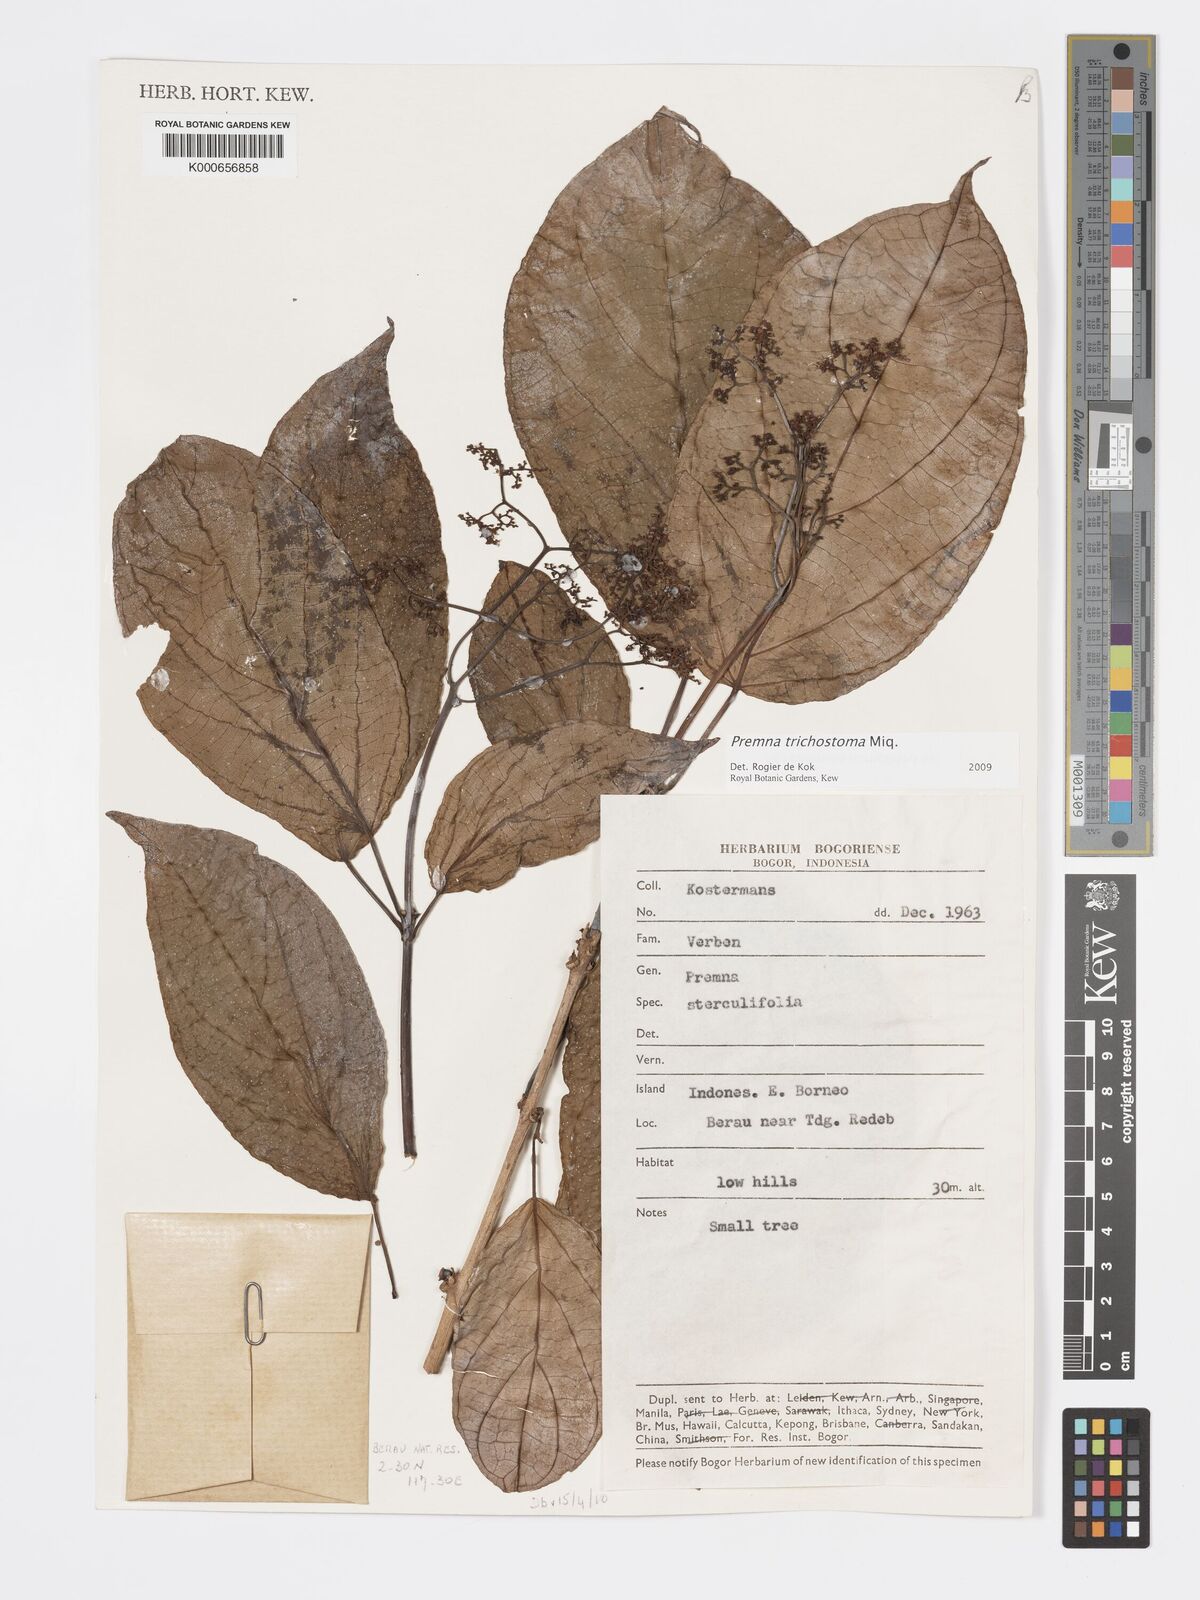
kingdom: Plantae
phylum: Tracheophyta
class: Magnoliopsida
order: Lamiales
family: Lamiaceae
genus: Premna
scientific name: Premna trichostoma
